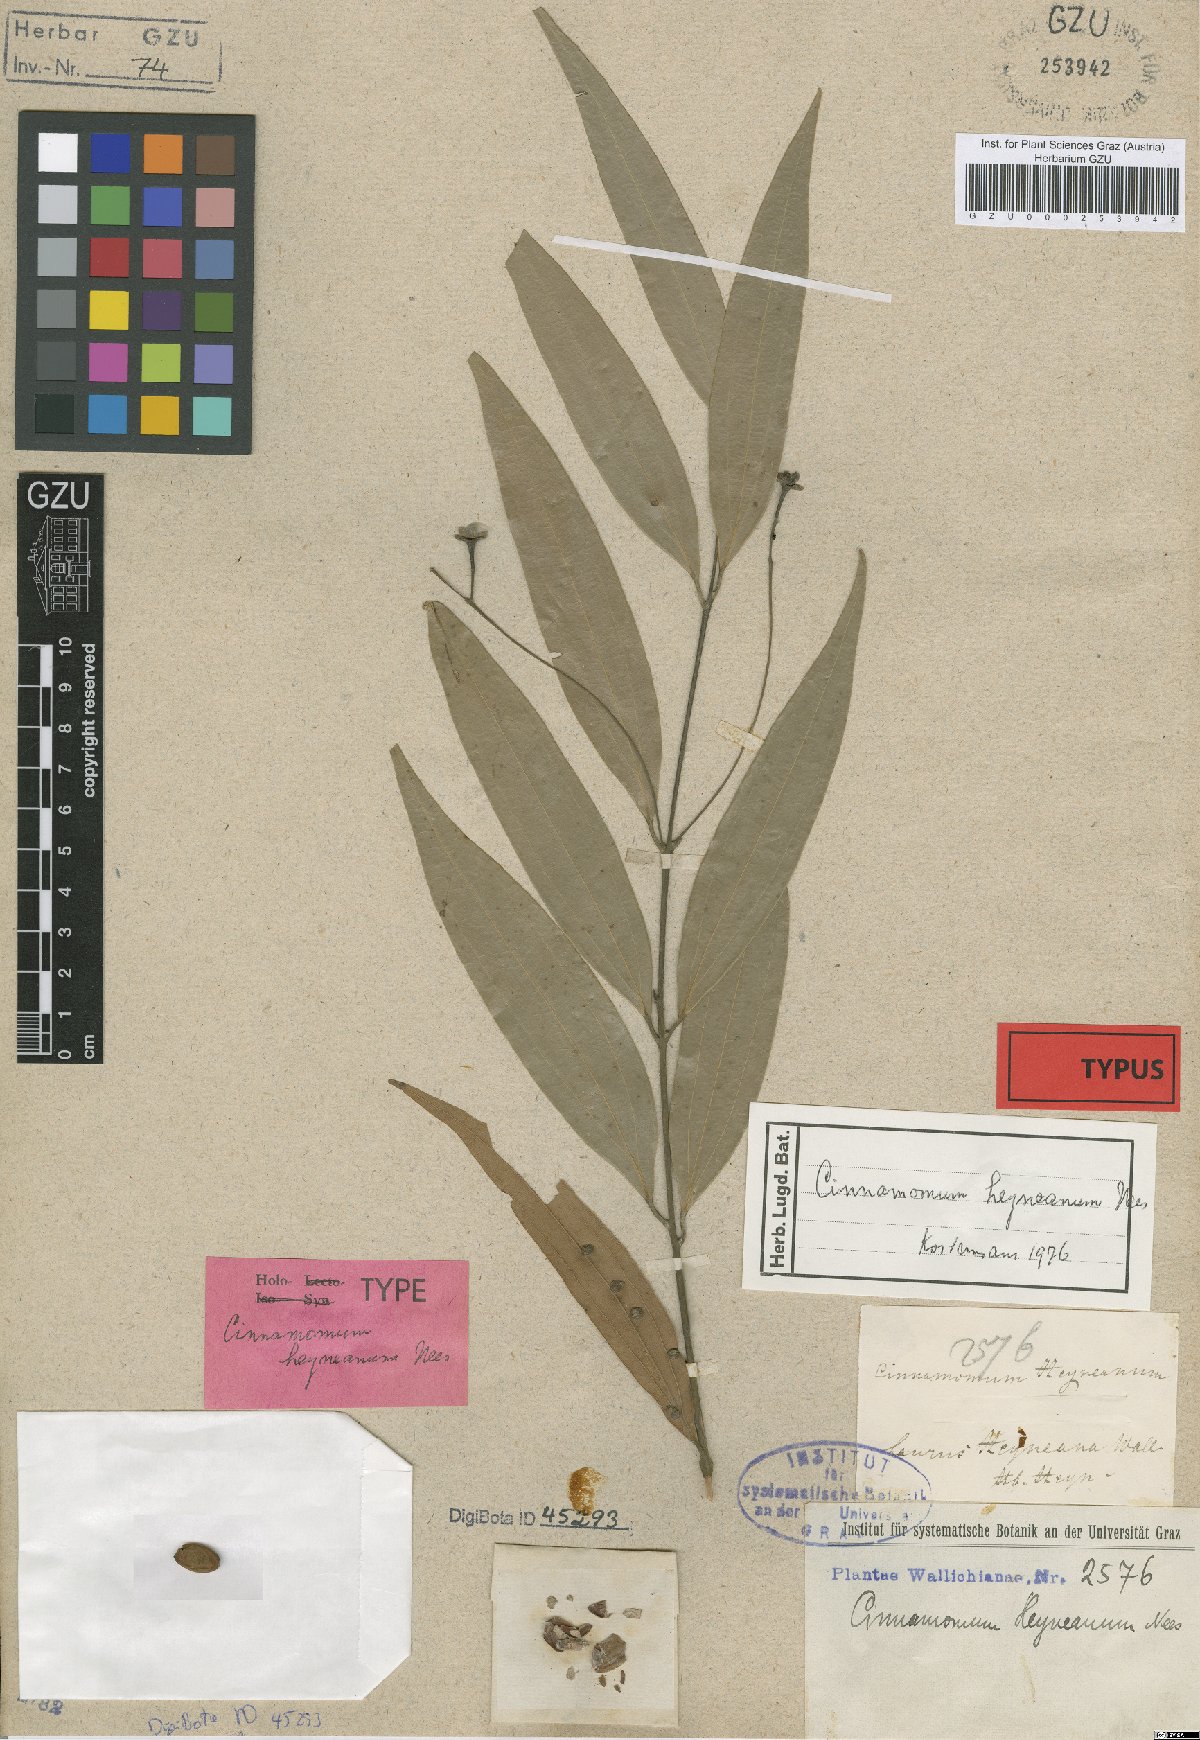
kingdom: Plantae
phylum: Tracheophyta
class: Magnoliopsida
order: Laurales
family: Lauraceae
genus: Cinnamomum
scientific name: Cinnamomum heyneanum
